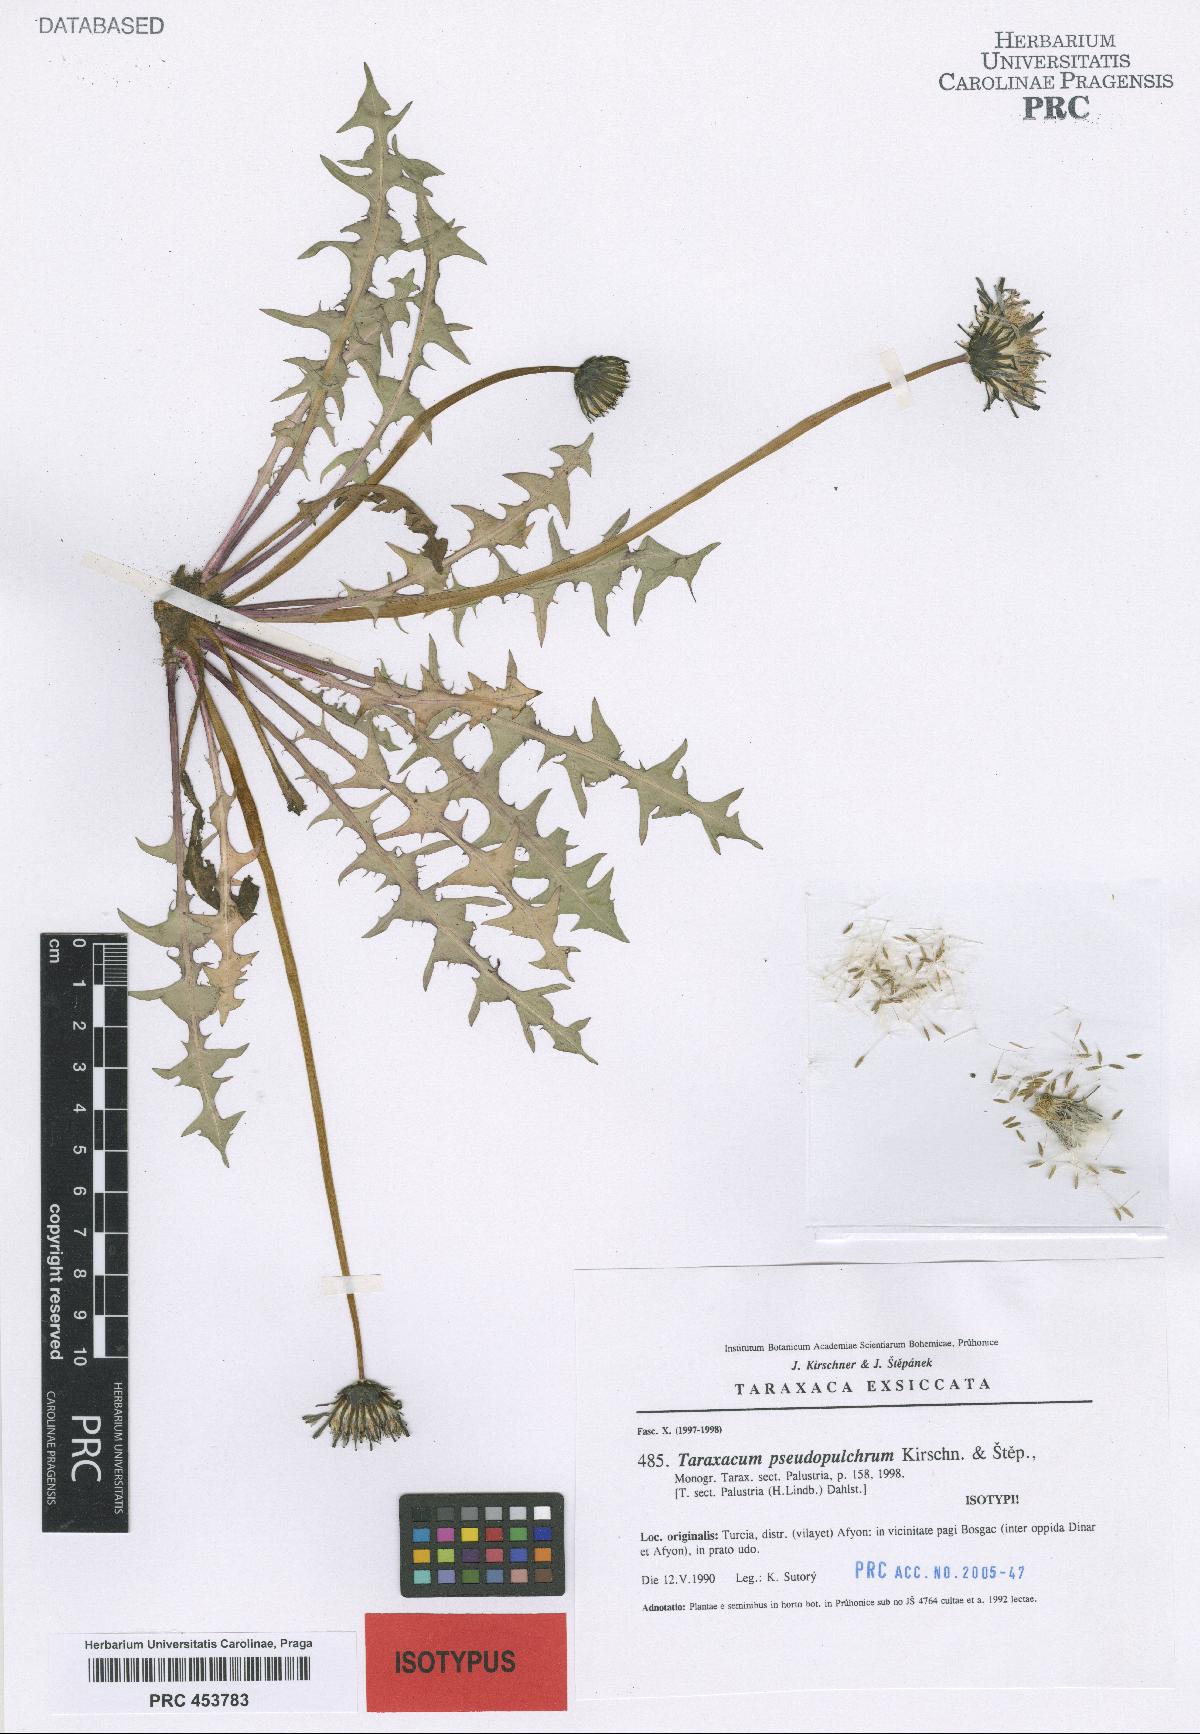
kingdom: Plantae
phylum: Tracheophyta
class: Magnoliopsida
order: Asterales
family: Asteraceae
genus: Taraxacum
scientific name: Taraxacum pseudopulchrum
